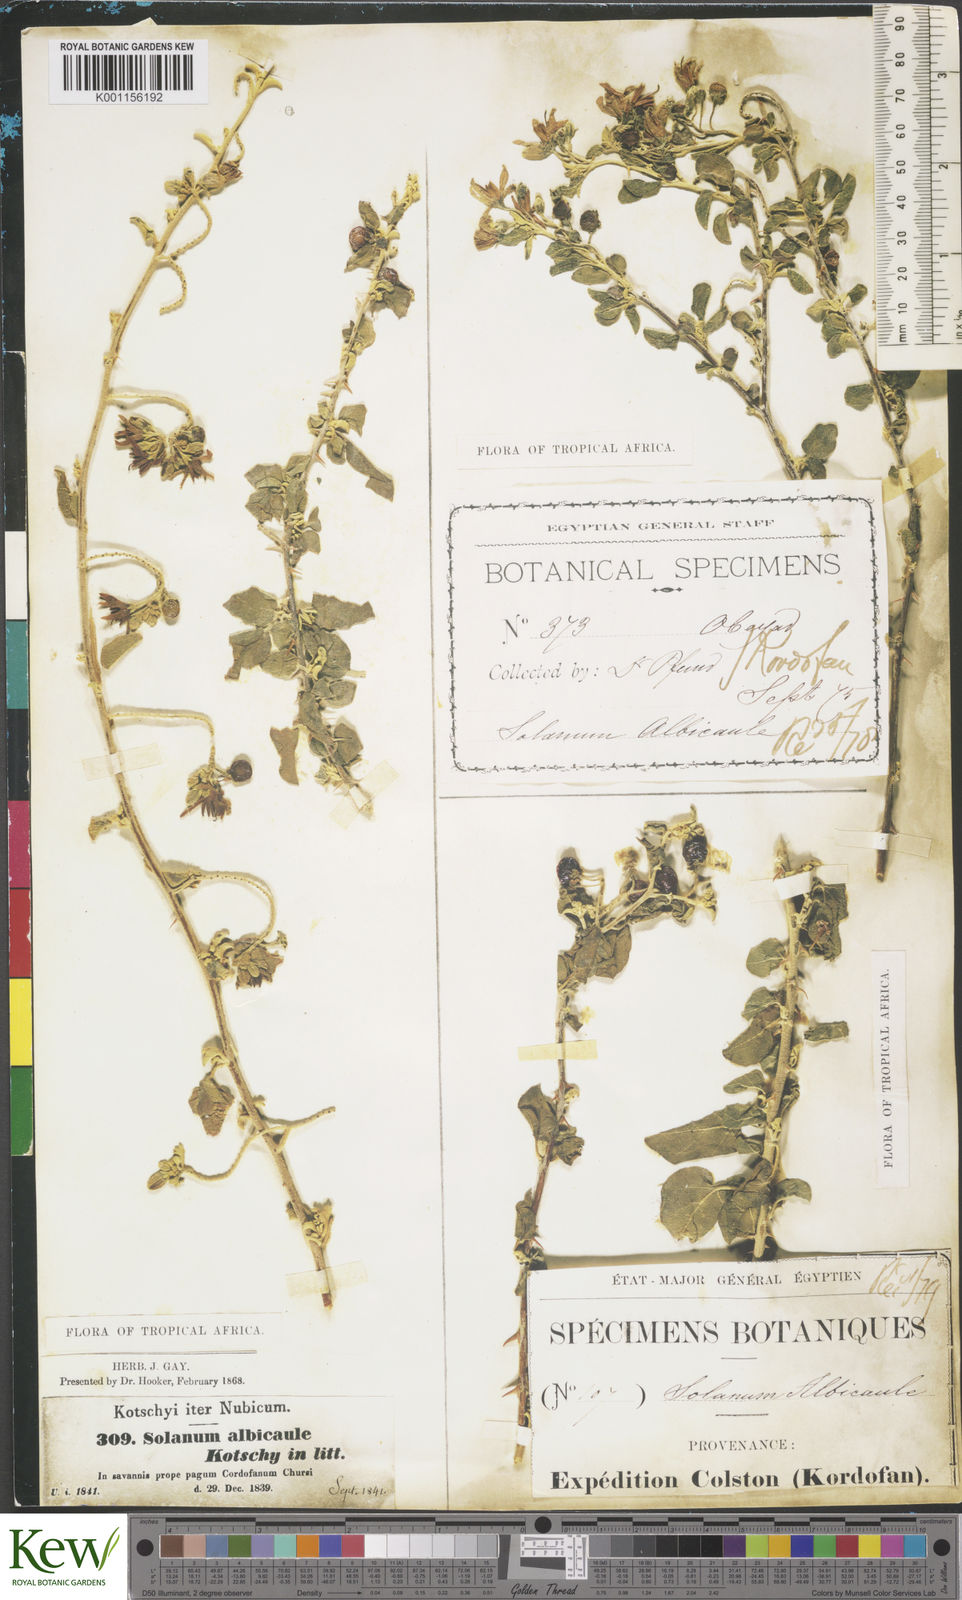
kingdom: Plantae
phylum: Tracheophyta
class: Magnoliopsida
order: Solanales
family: Solanaceae
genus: Solanum
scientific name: Solanum
